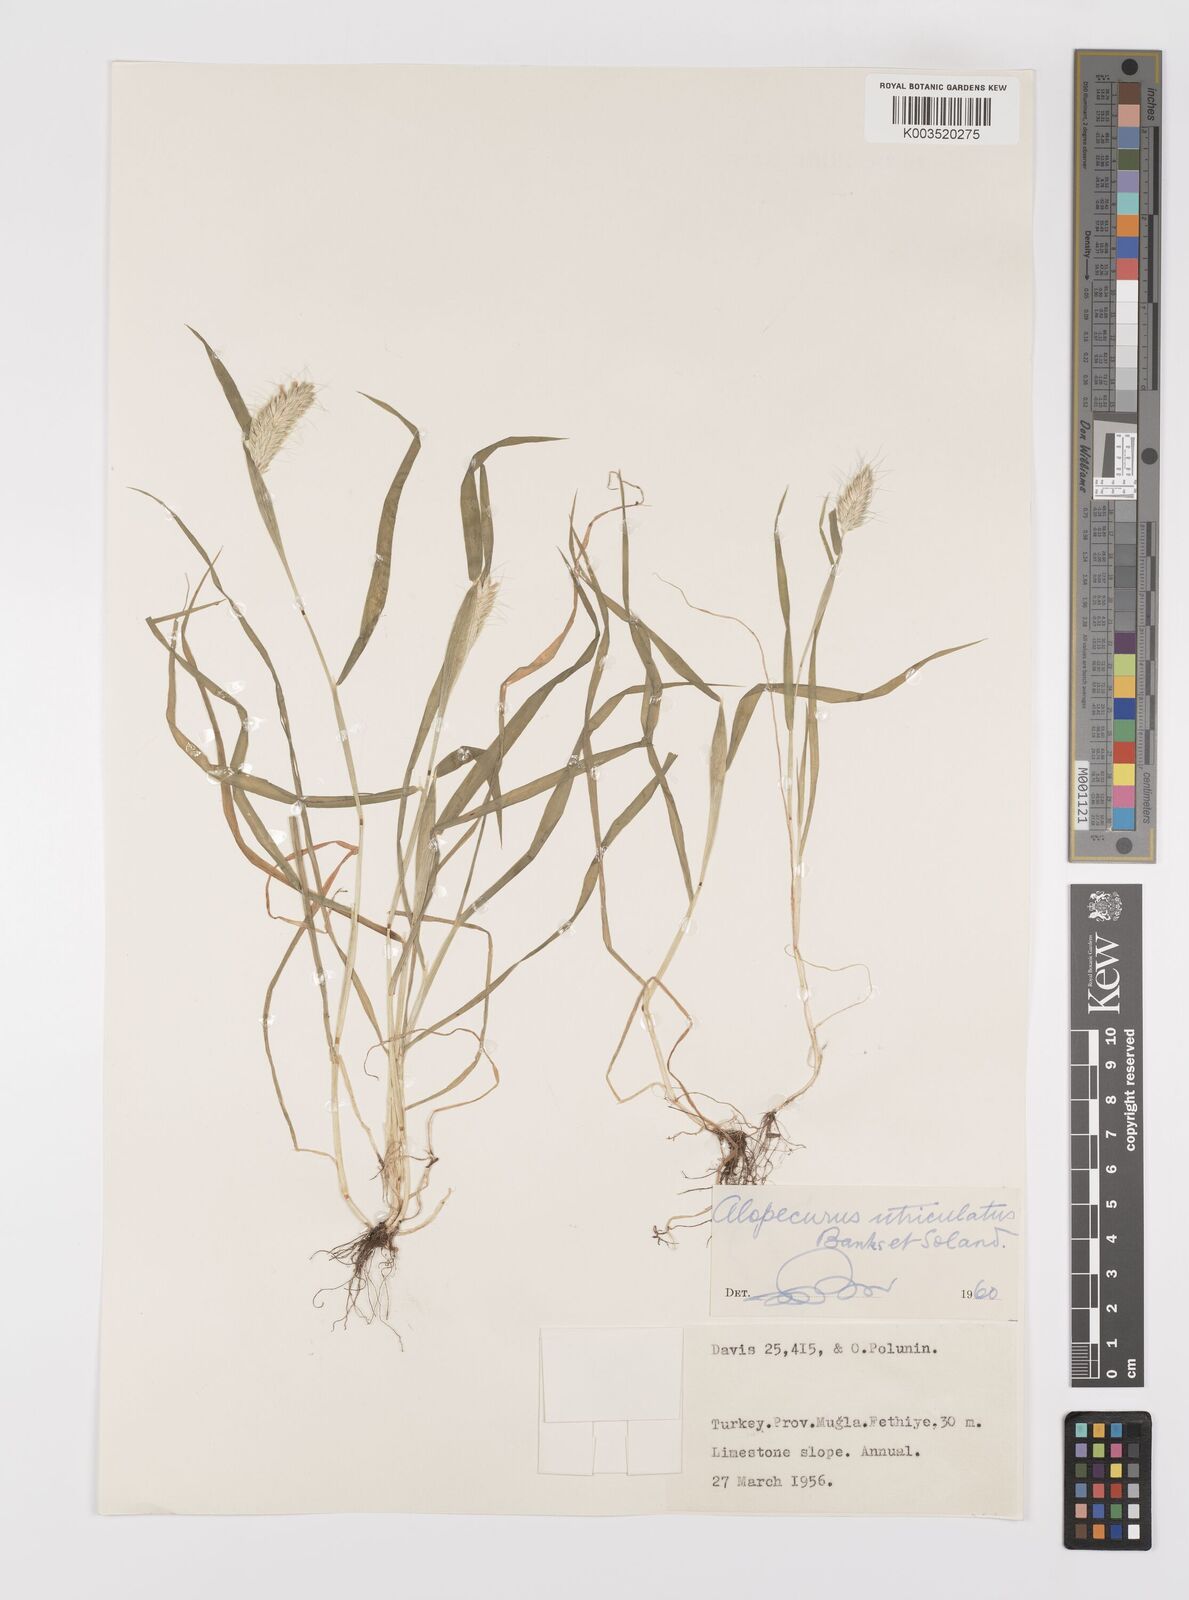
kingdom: Plantae
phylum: Tracheophyta
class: Liliopsida
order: Poales
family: Poaceae
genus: Alopecurus
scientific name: Alopecurus utriculatus
